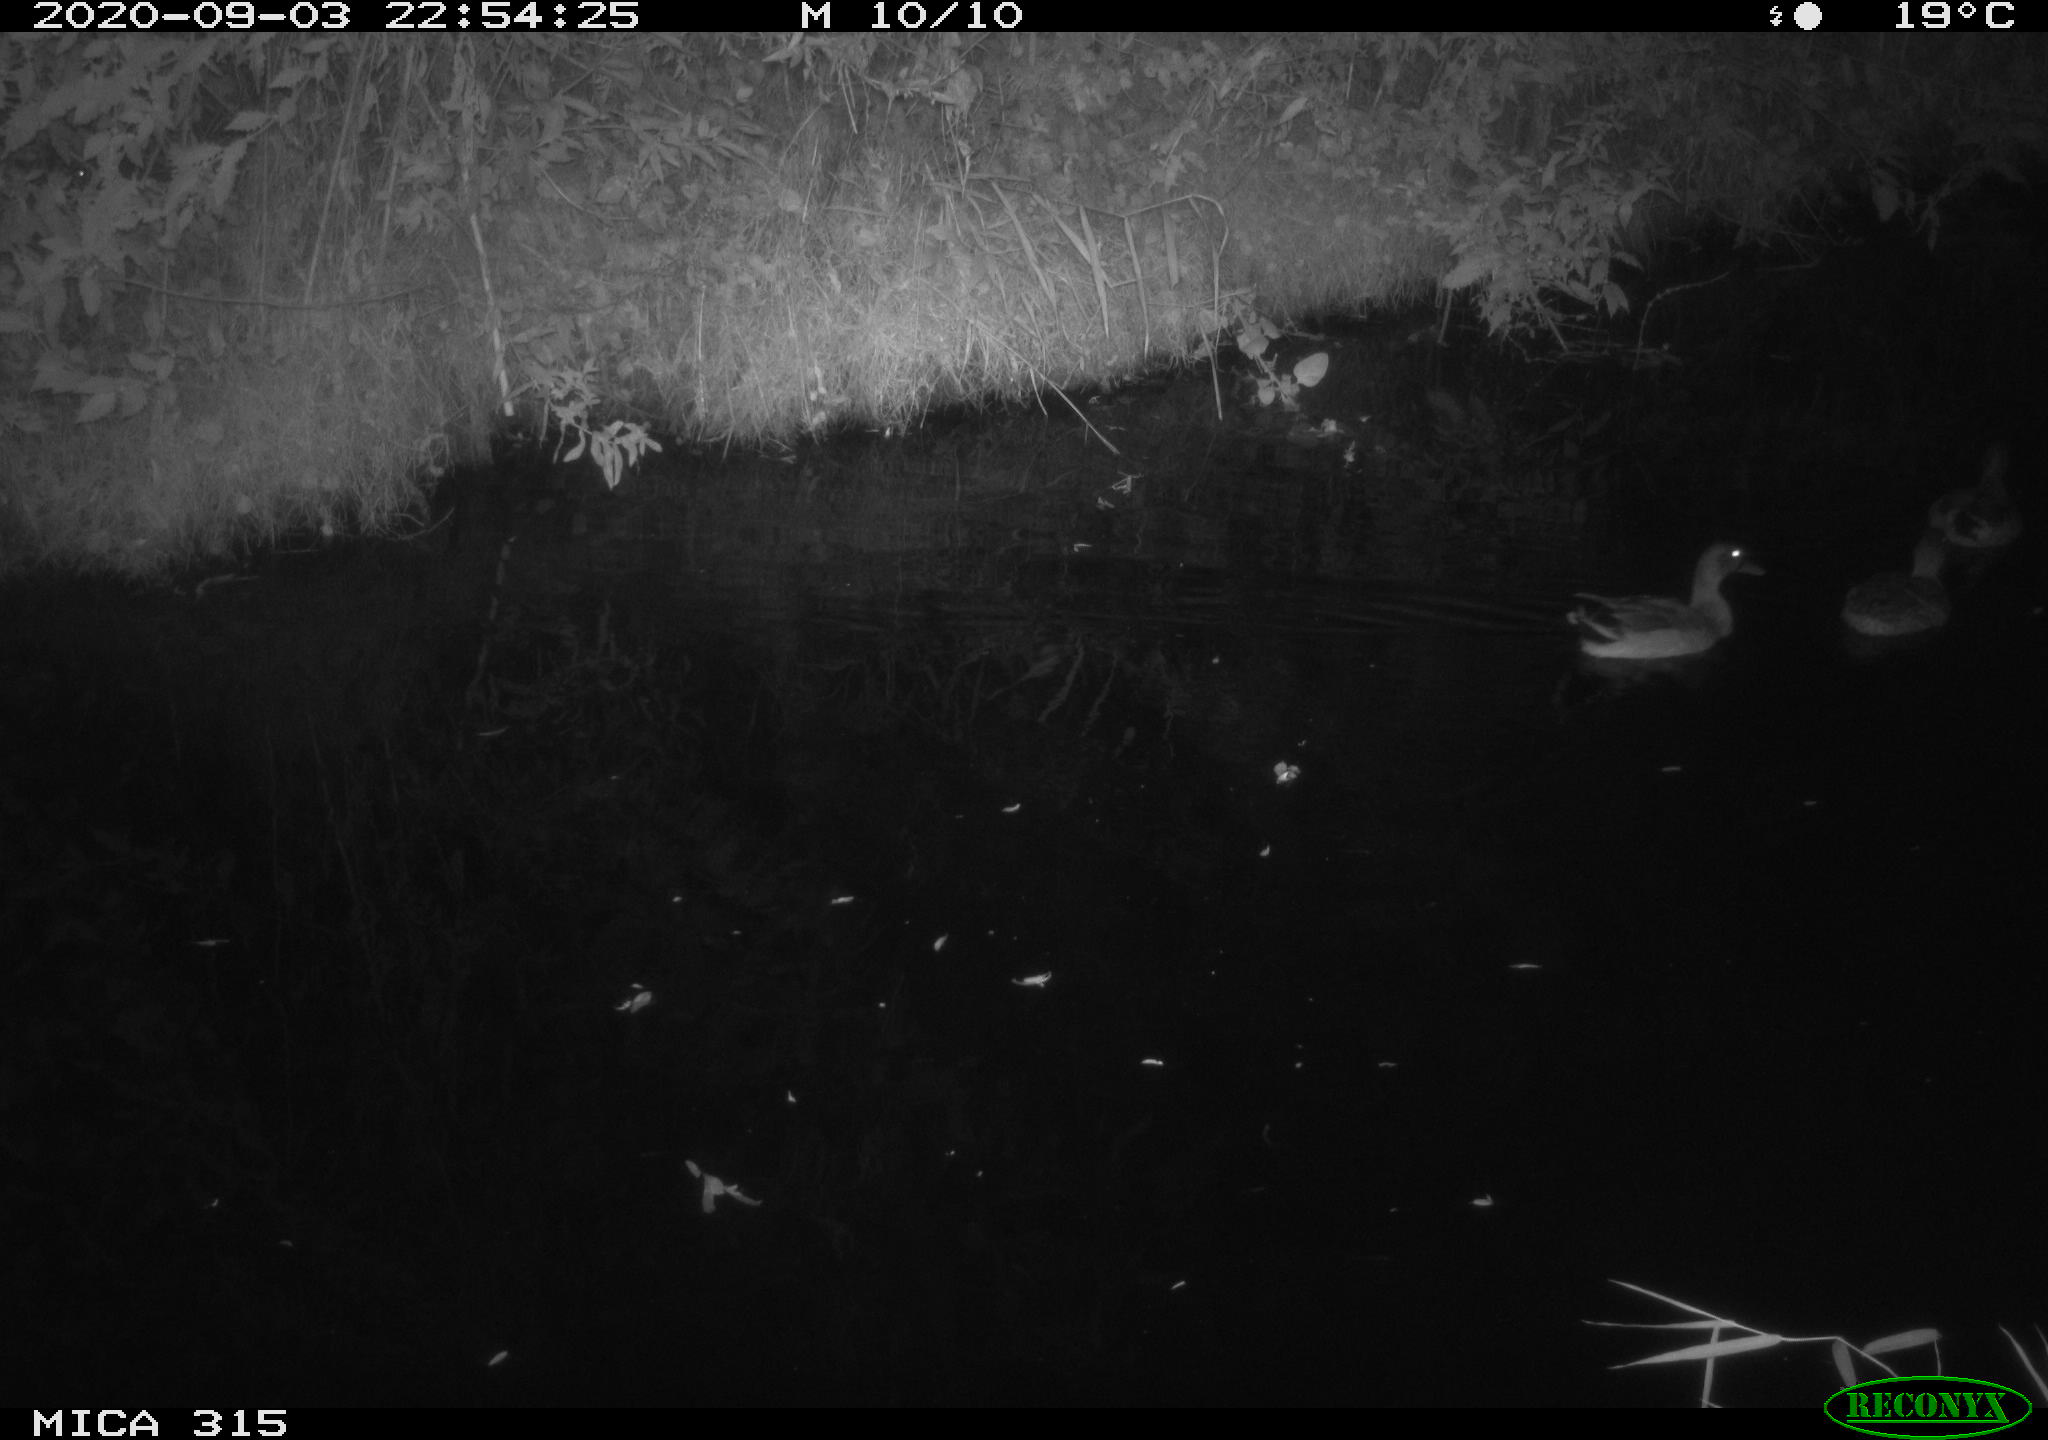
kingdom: Animalia
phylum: Chordata
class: Aves
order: Anseriformes
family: Anatidae
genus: Anas
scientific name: Anas platyrhynchos
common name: Mallard
